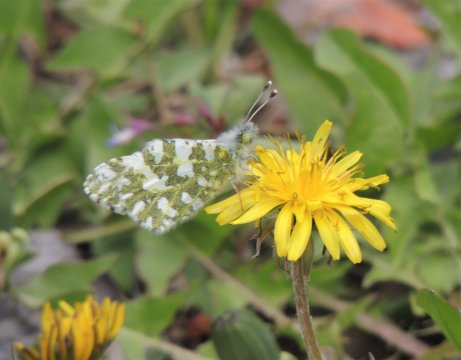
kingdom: Animalia
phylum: Arthropoda
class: Insecta
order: Lepidoptera
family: Pieridae
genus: Euchloe
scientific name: Euchloe lotta
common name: Desert Marble
